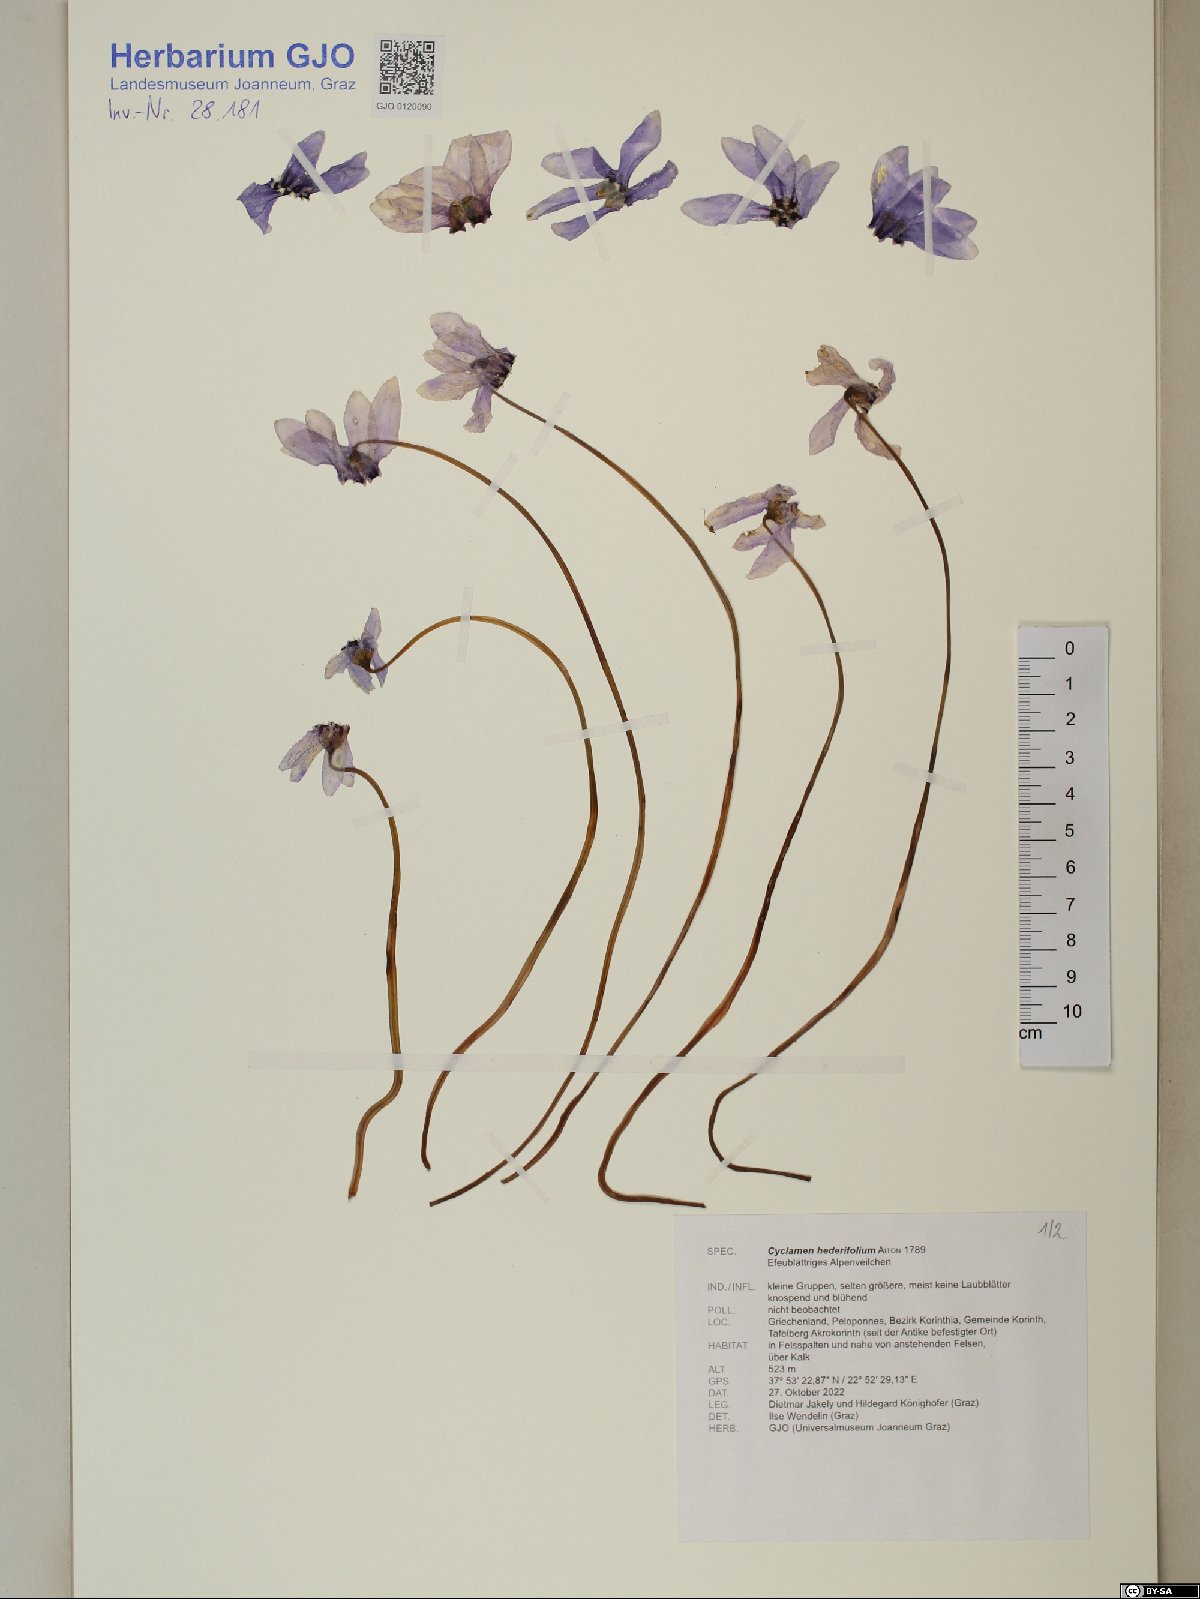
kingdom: Plantae
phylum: Tracheophyta
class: Magnoliopsida
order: Ericales
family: Primulaceae
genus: Cyclamen
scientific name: Cyclamen hederifolium
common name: Sowbread
